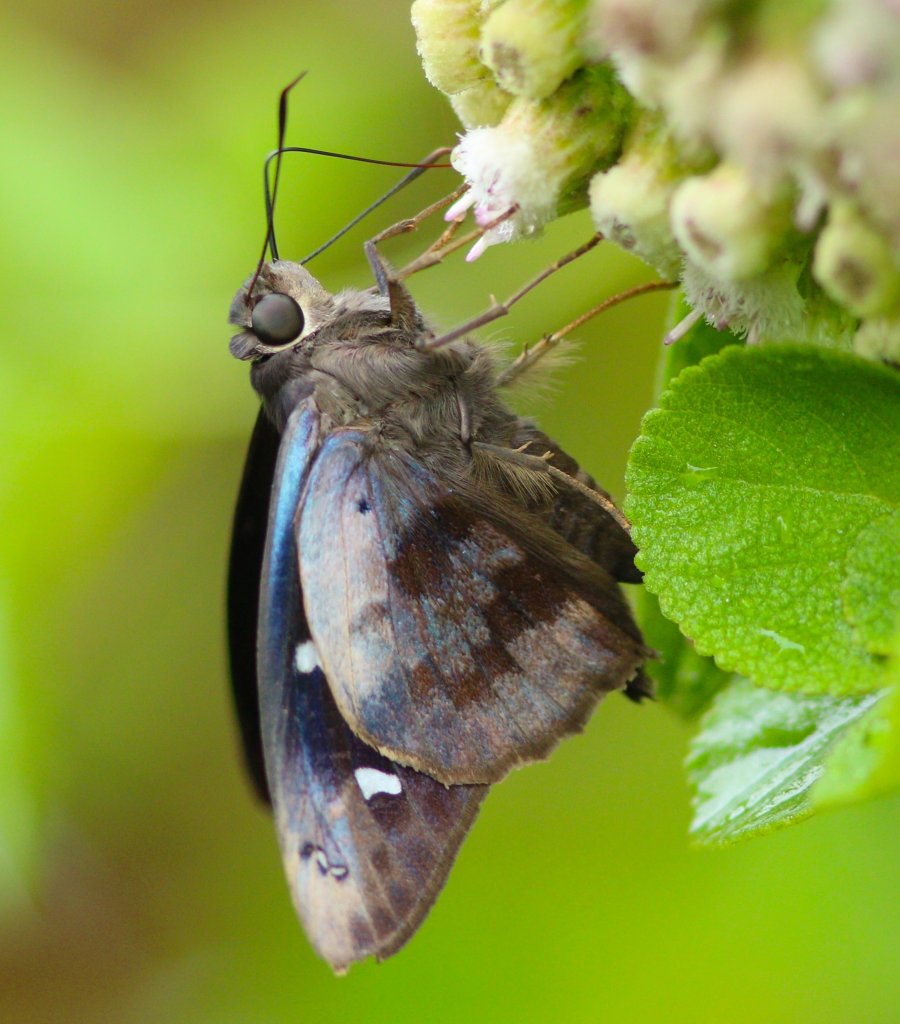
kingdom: Animalia
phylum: Arthropoda
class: Insecta
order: Lepidoptera
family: Hesperiidae
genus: Polygonus
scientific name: Polygonus leo
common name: Hammock Skipper
